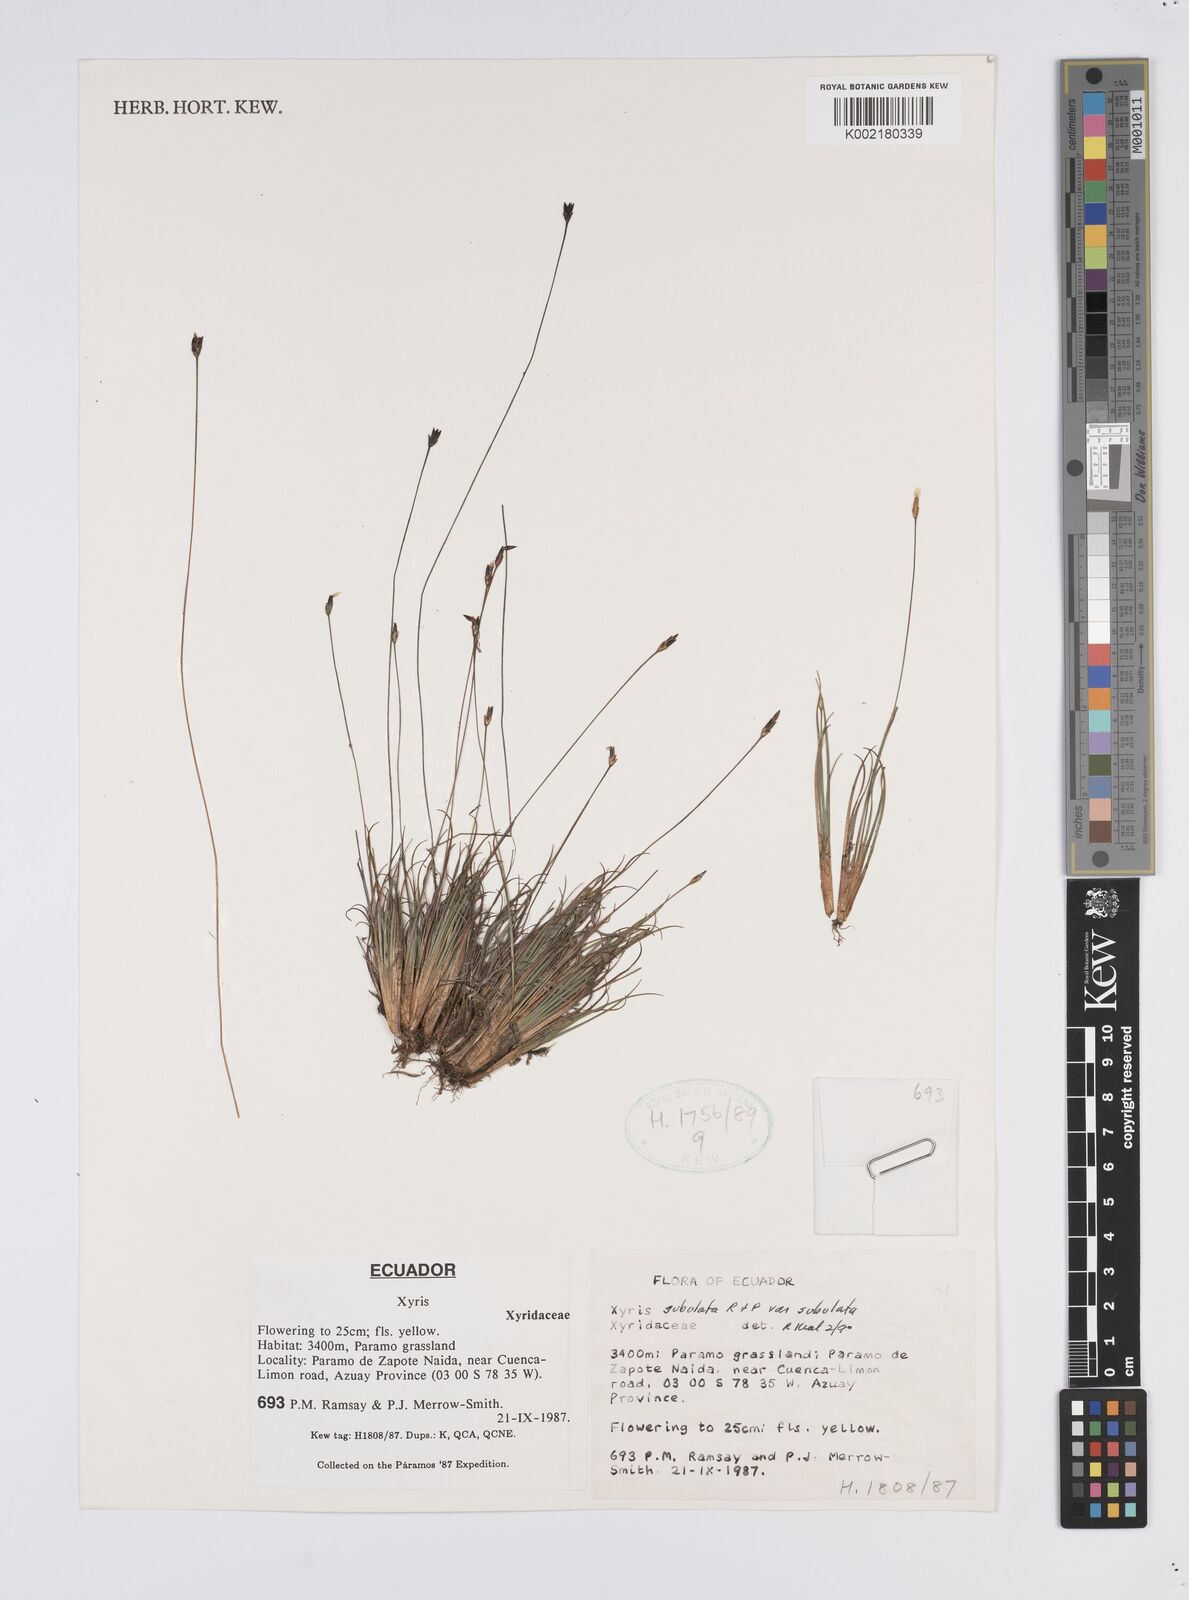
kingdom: Plantae
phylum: Tracheophyta
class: Liliopsida
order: Poales
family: Xyridaceae
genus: Xyris
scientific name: Xyris subulata
